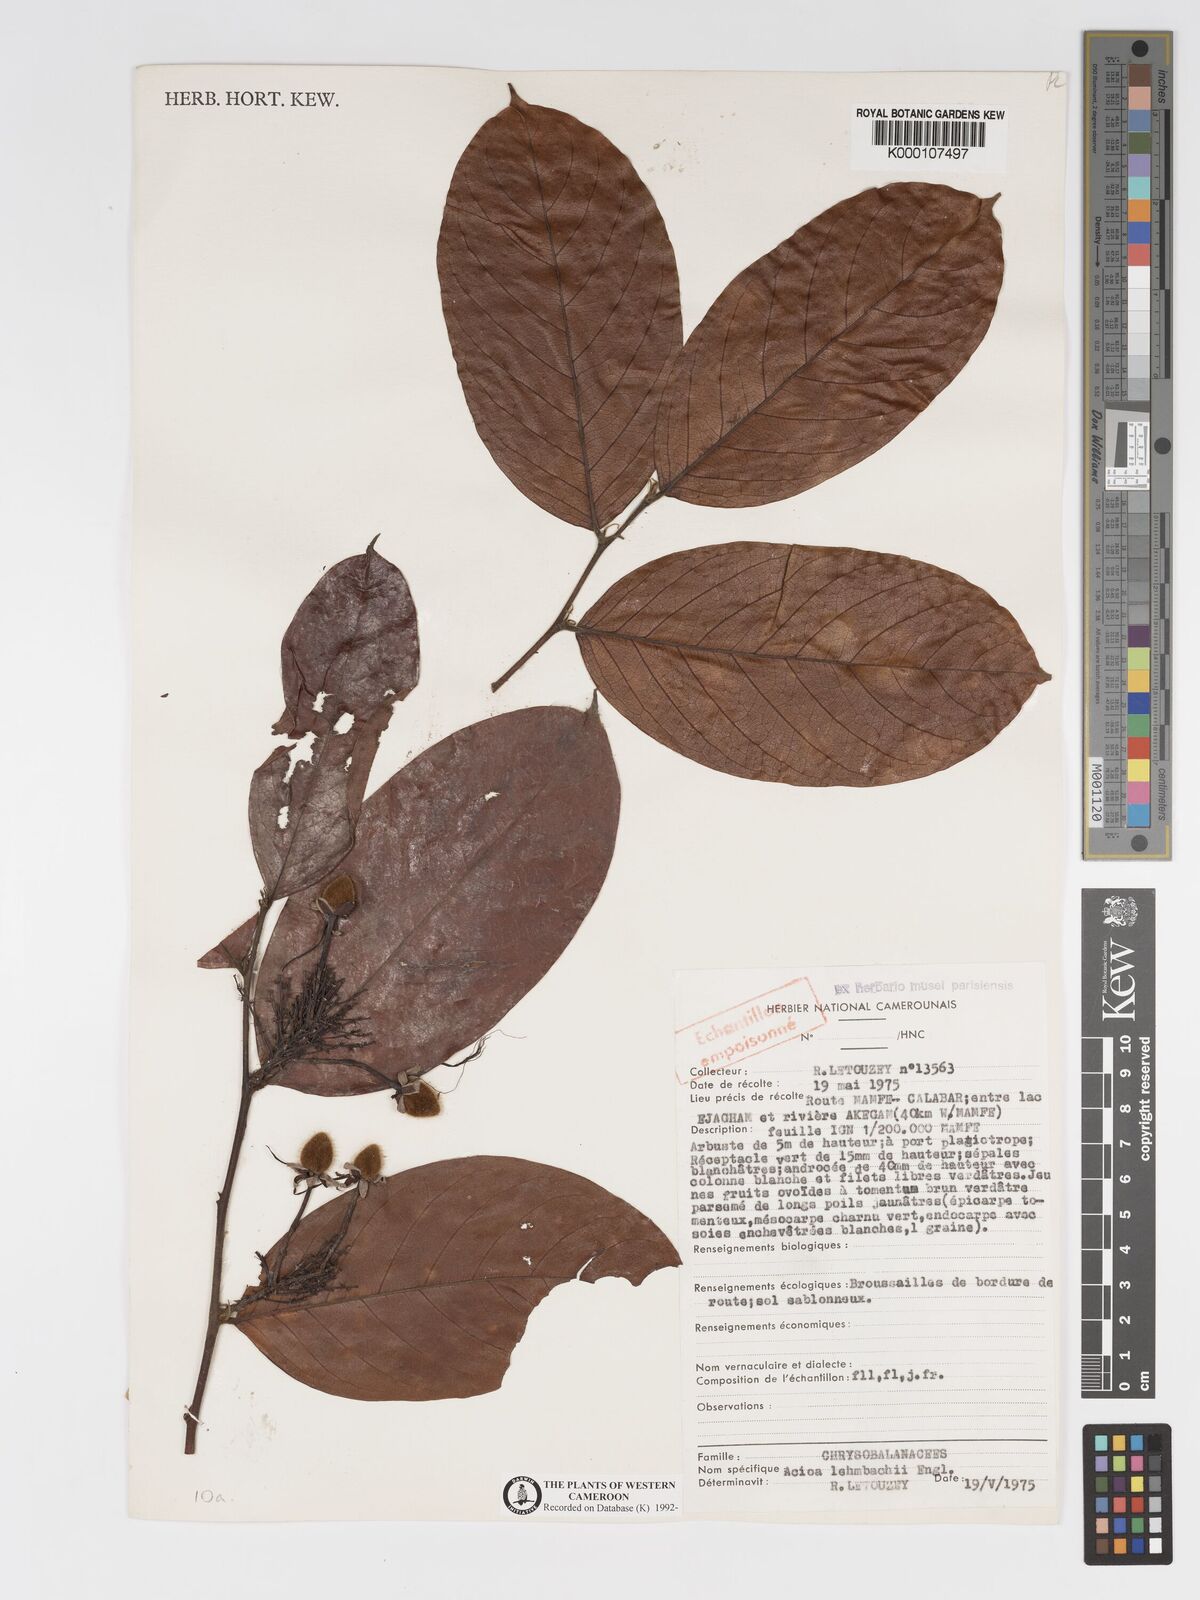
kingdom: Plantae
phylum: Tracheophyta
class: Magnoliopsida
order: Malpighiales
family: Chrysobalanaceae
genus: Dactyladenia
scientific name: Dactyladenia lehmbachii
